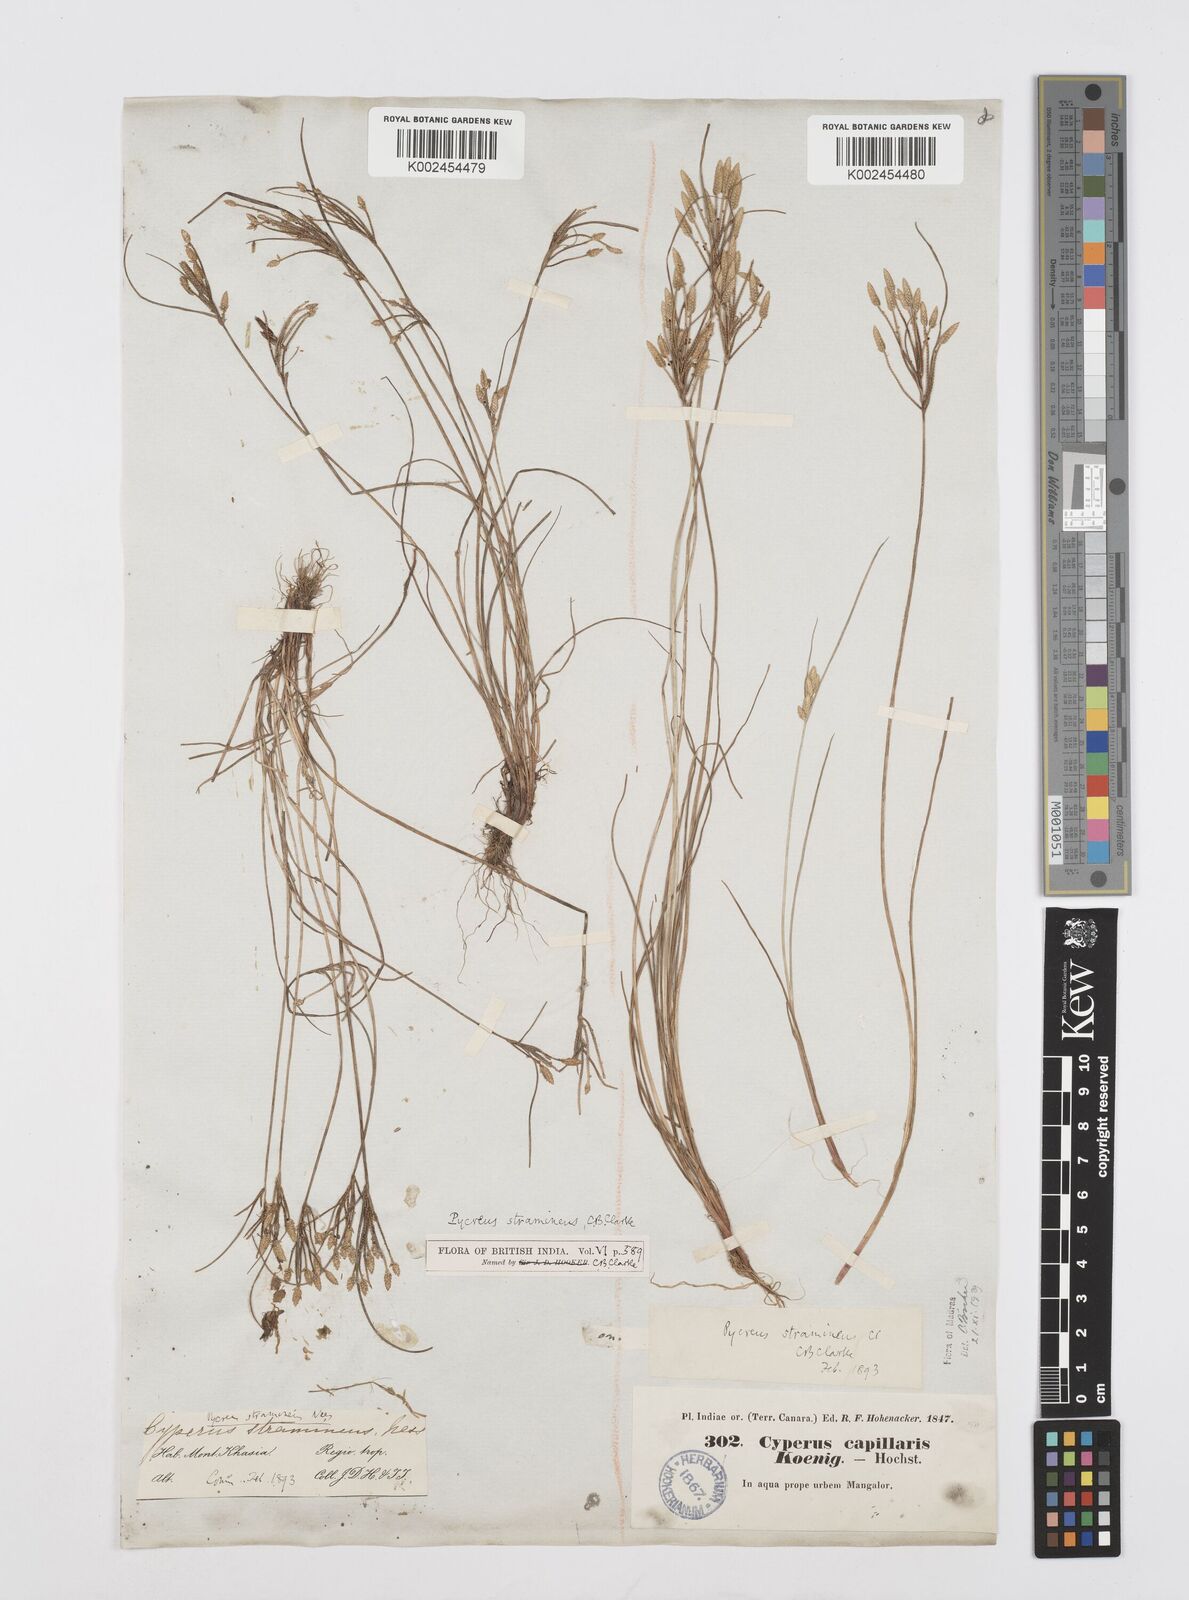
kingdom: Plantae
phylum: Tracheophyta
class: Liliopsida
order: Poales
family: Cyperaceae
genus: Cyperus
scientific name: Cyperus substramineus
